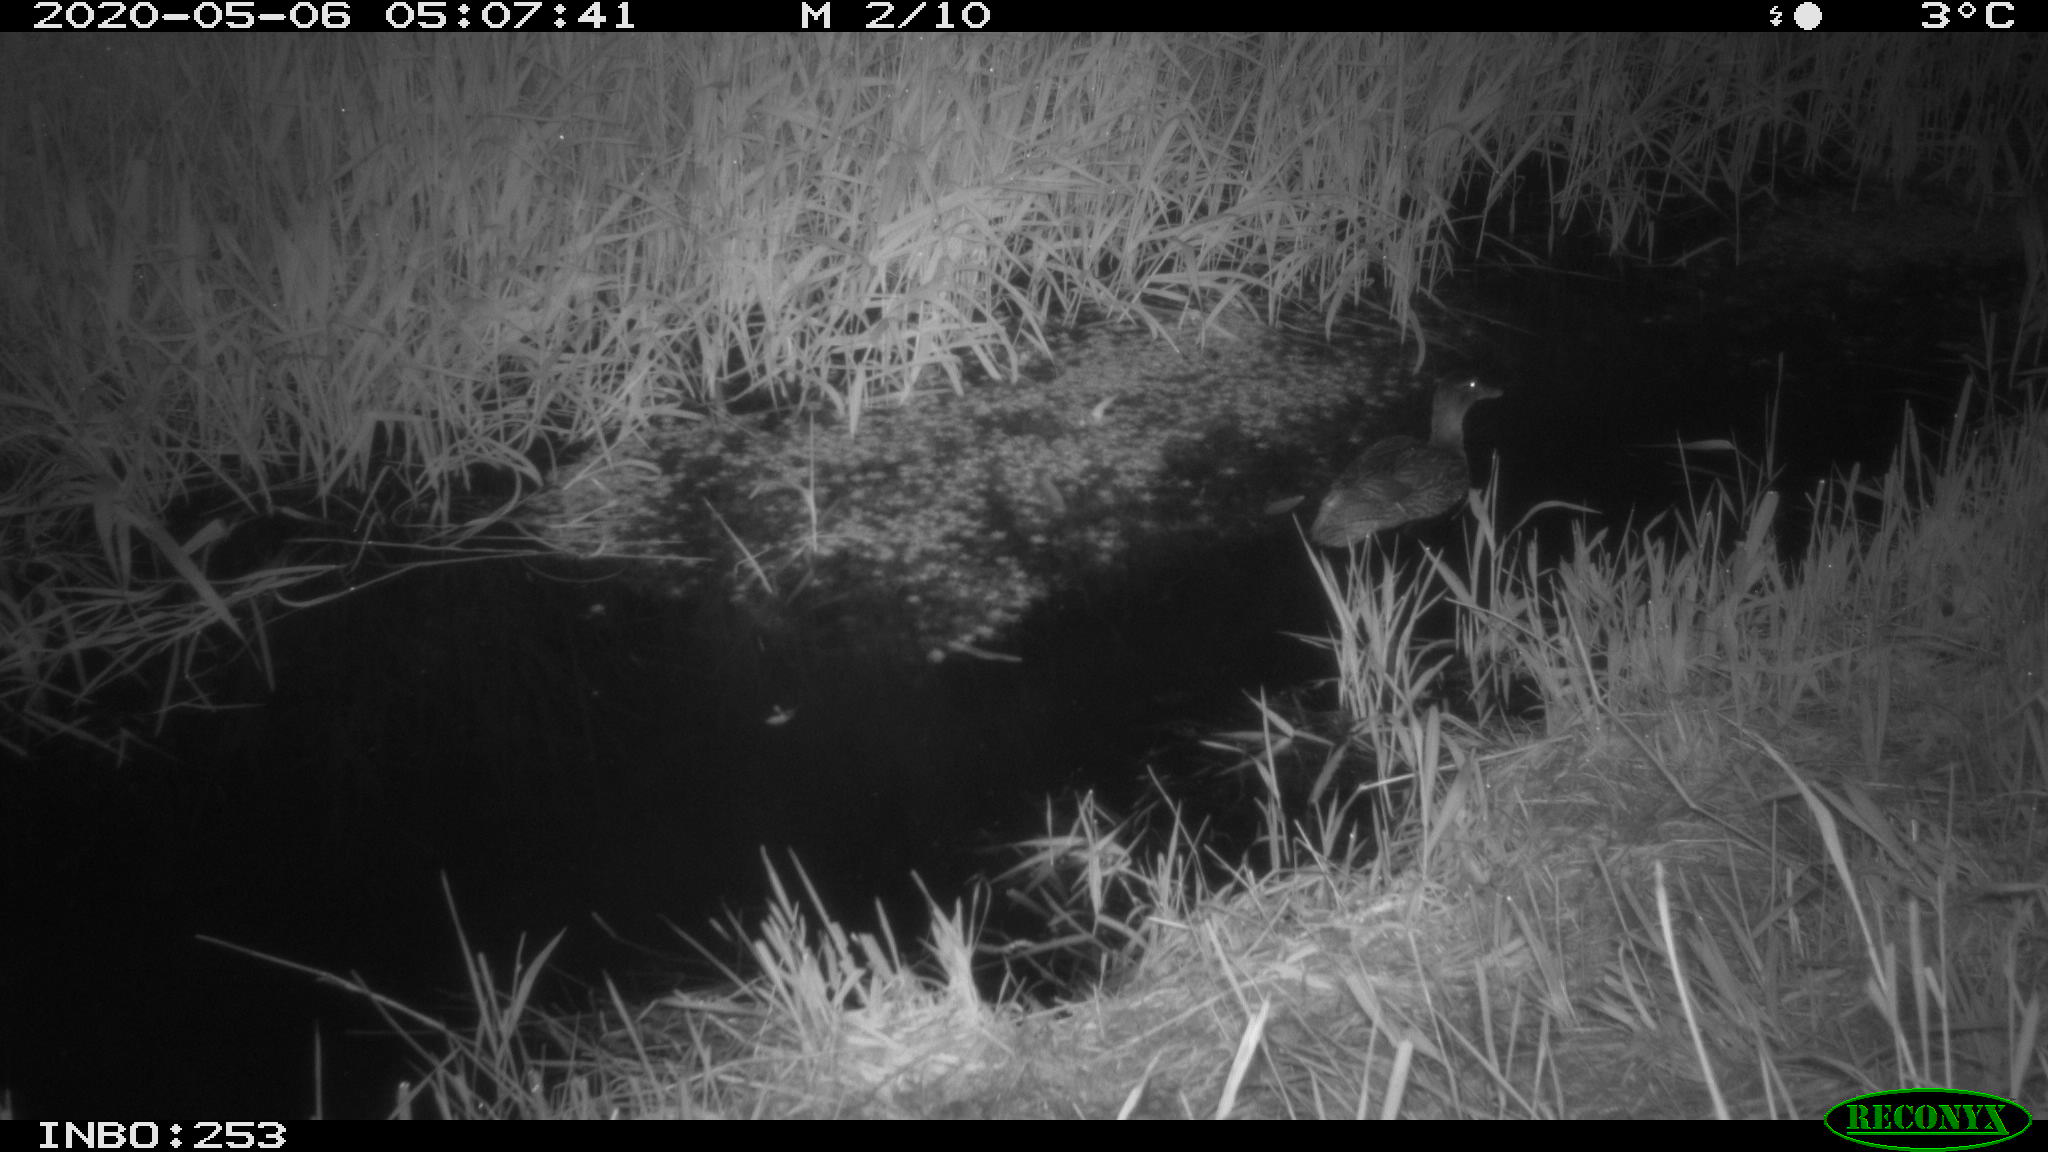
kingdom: Animalia
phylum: Chordata
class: Aves
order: Anseriformes
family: Anatidae
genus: Anas
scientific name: Anas platyrhynchos
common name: Mallard
